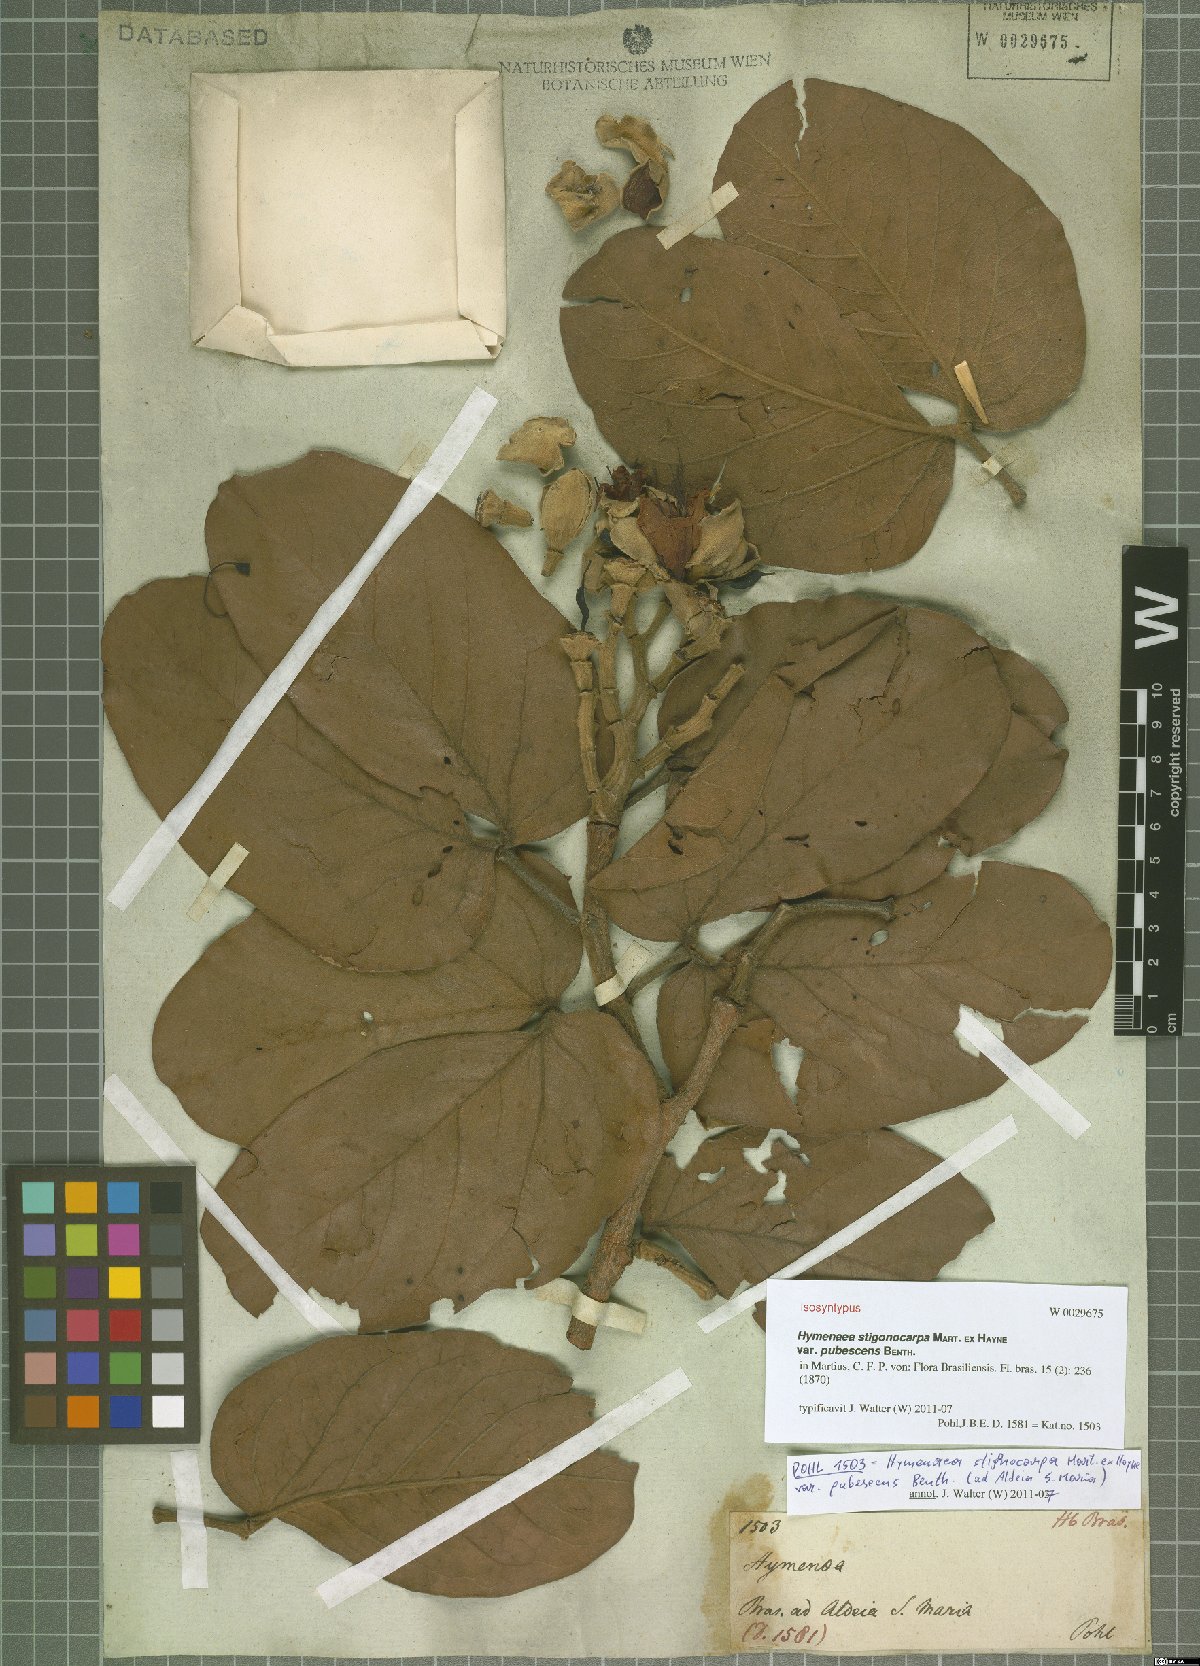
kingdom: Plantae
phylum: Tracheophyta
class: Magnoliopsida
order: Fabales
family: Fabaceae
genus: Hymenaea
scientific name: Hymenaea stigonocarpa
